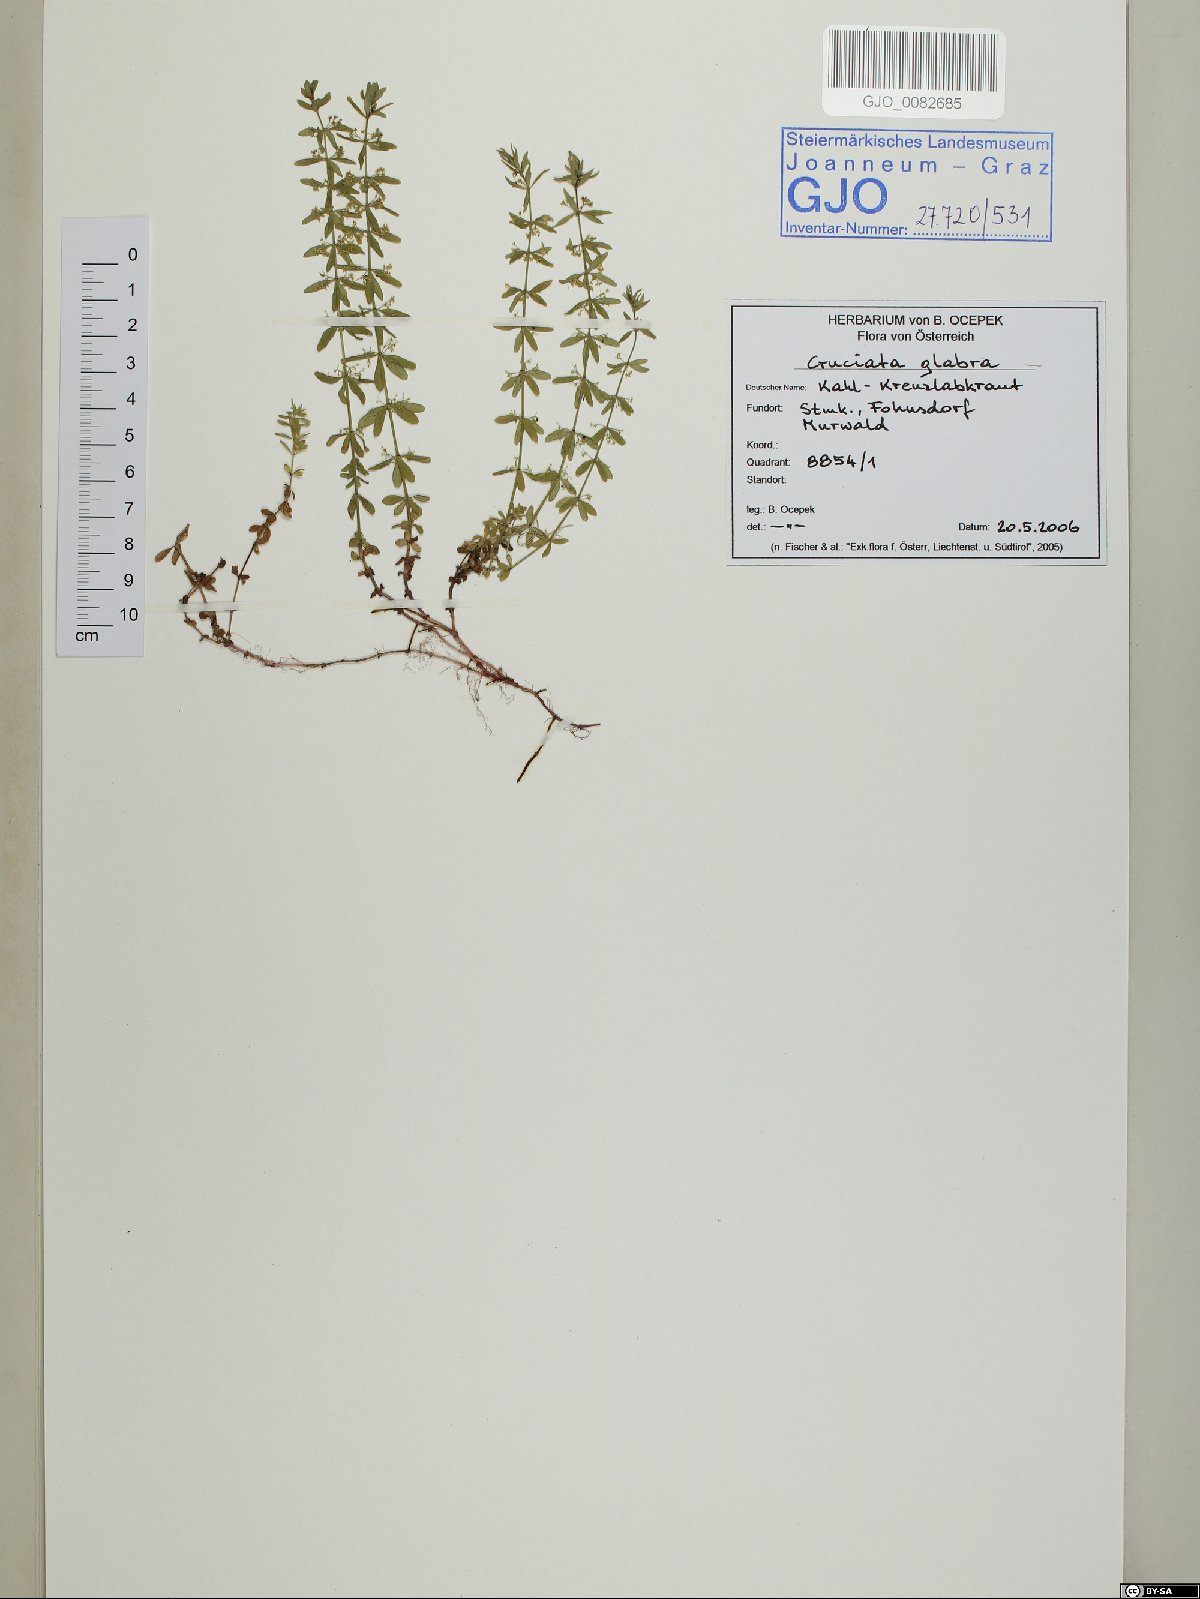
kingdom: Plantae
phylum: Tracheophyta
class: Magnoliopsida
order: Gentianales
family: Rubiaceae
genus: Cruciata
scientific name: Cruciata glabra
